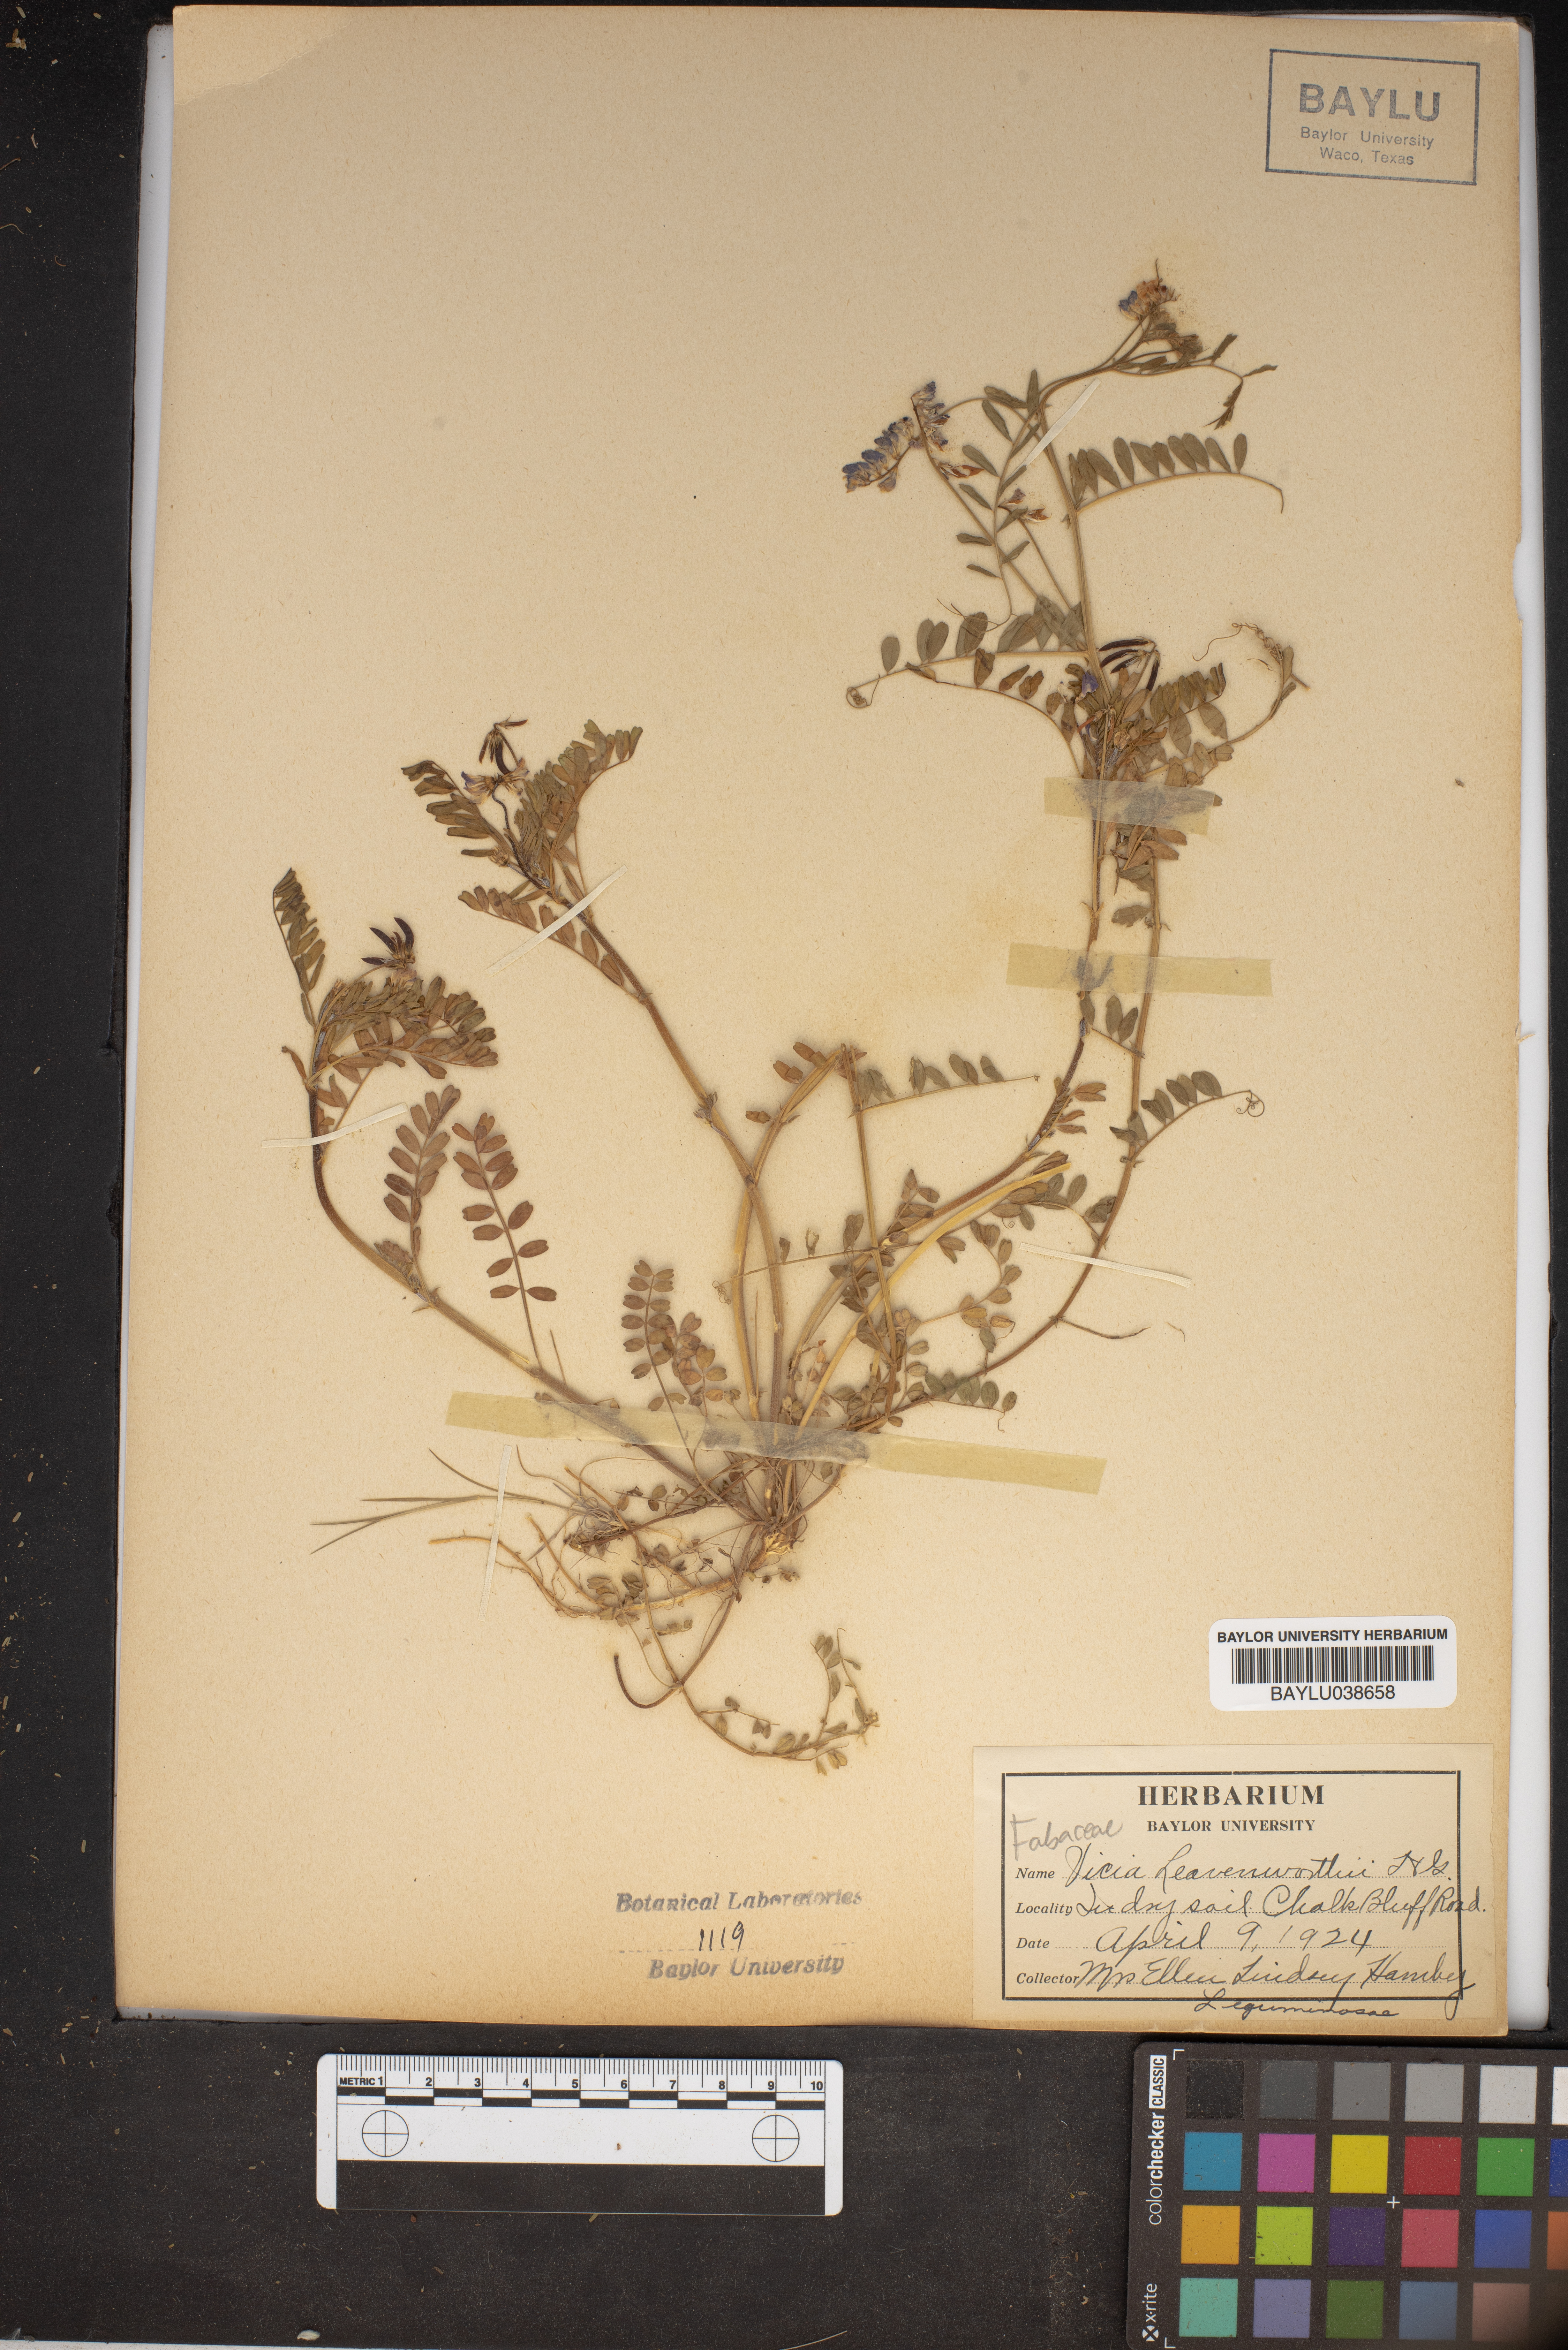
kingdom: Plantae
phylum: Tracheophyta
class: Magnoliopsida
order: Fabales
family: Fabaceae
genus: Vicia
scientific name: Vicia ludoviciana
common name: Louisiana vetch
